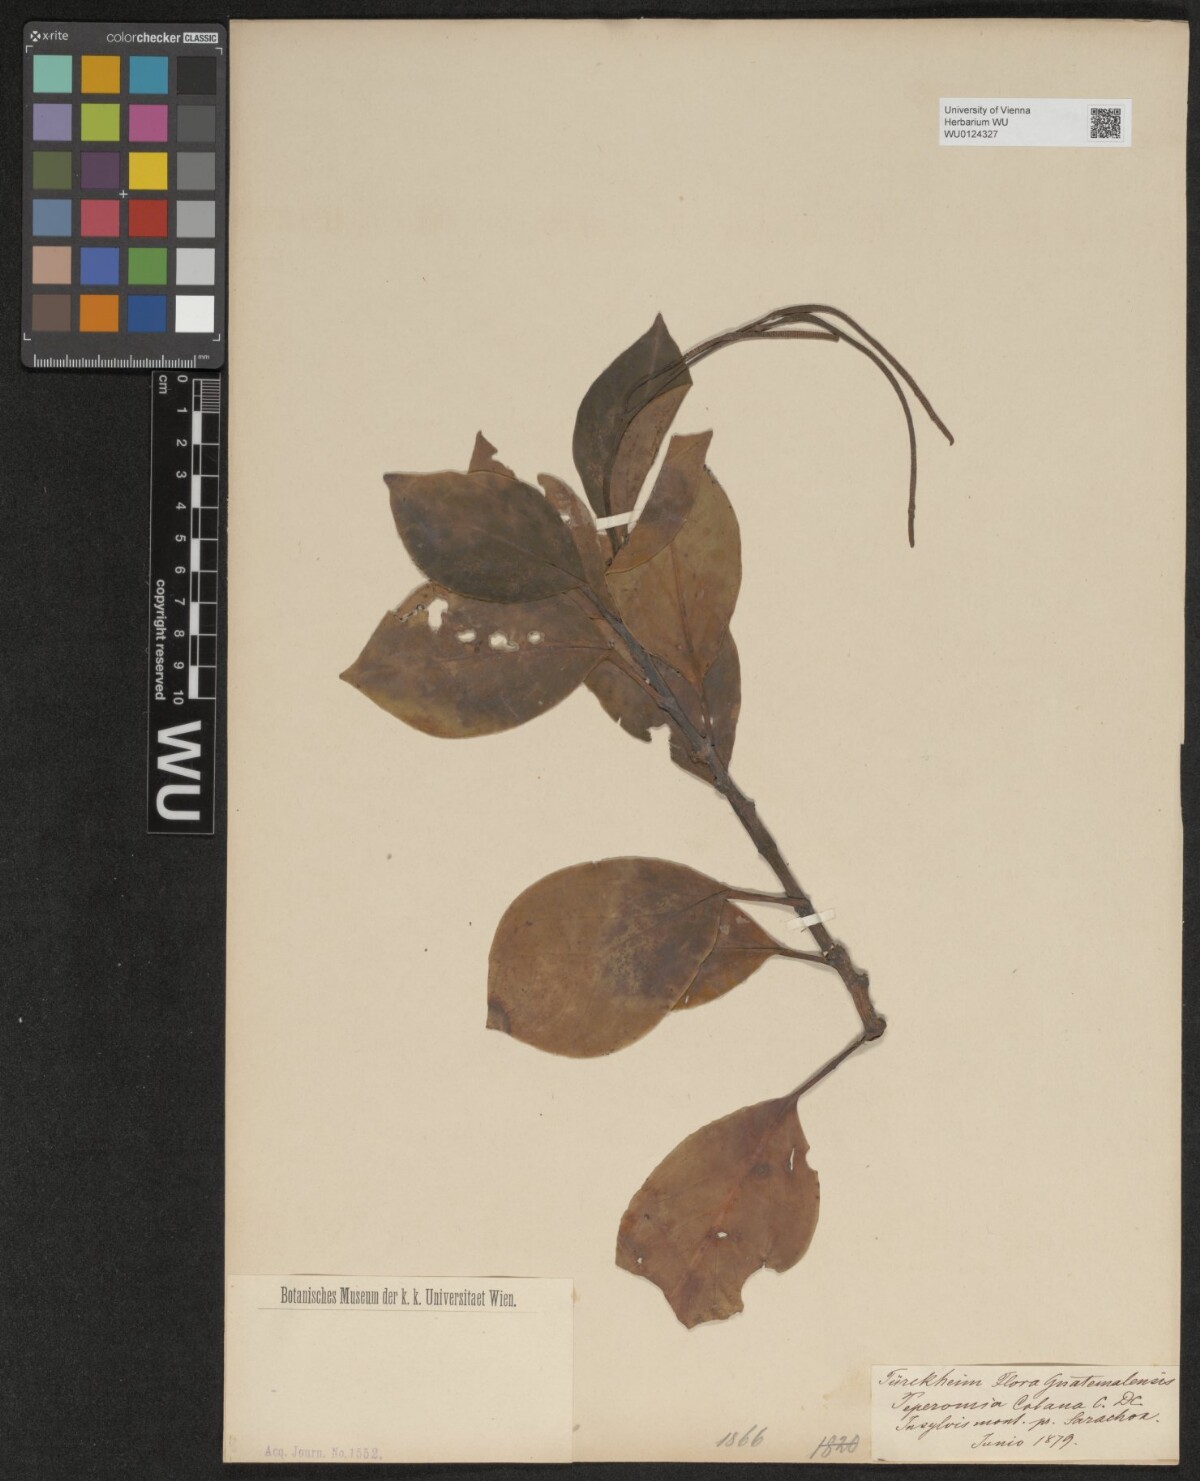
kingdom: Plantae
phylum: Tracheophyta
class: Magnoliopsida
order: Piperales
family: Piperaceae
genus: Peperomia
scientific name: Peperomia guadaloupensis
